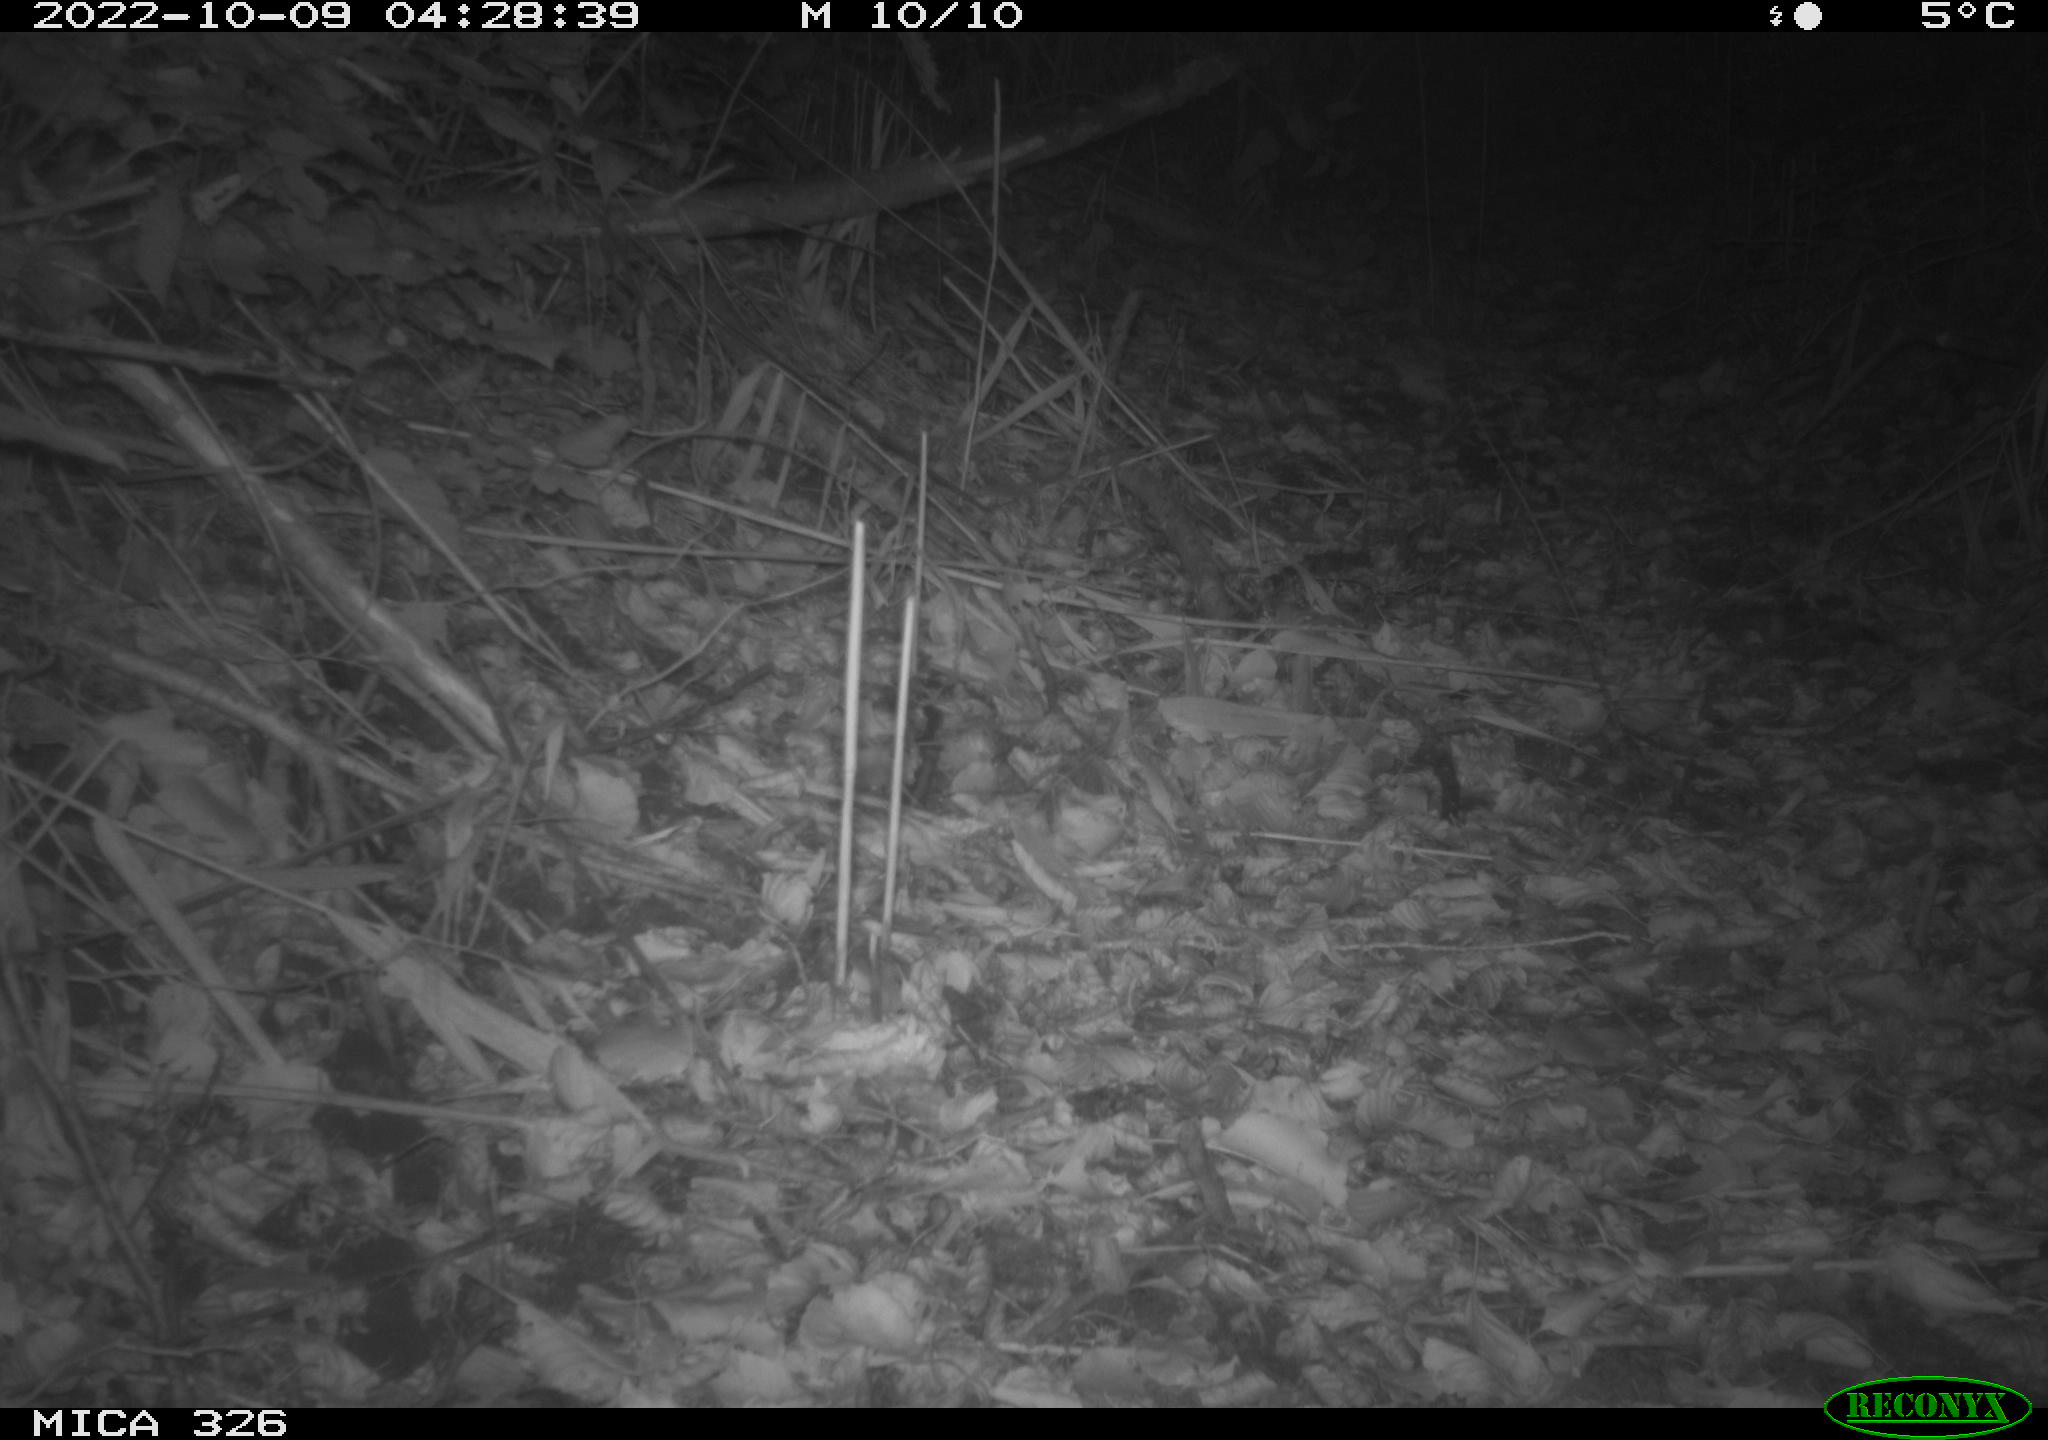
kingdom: Animalia
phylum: Chordata
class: Mammalia
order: Carnivora
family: Mustelidae
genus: Martes
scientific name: Martes martes
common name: European pine marten
